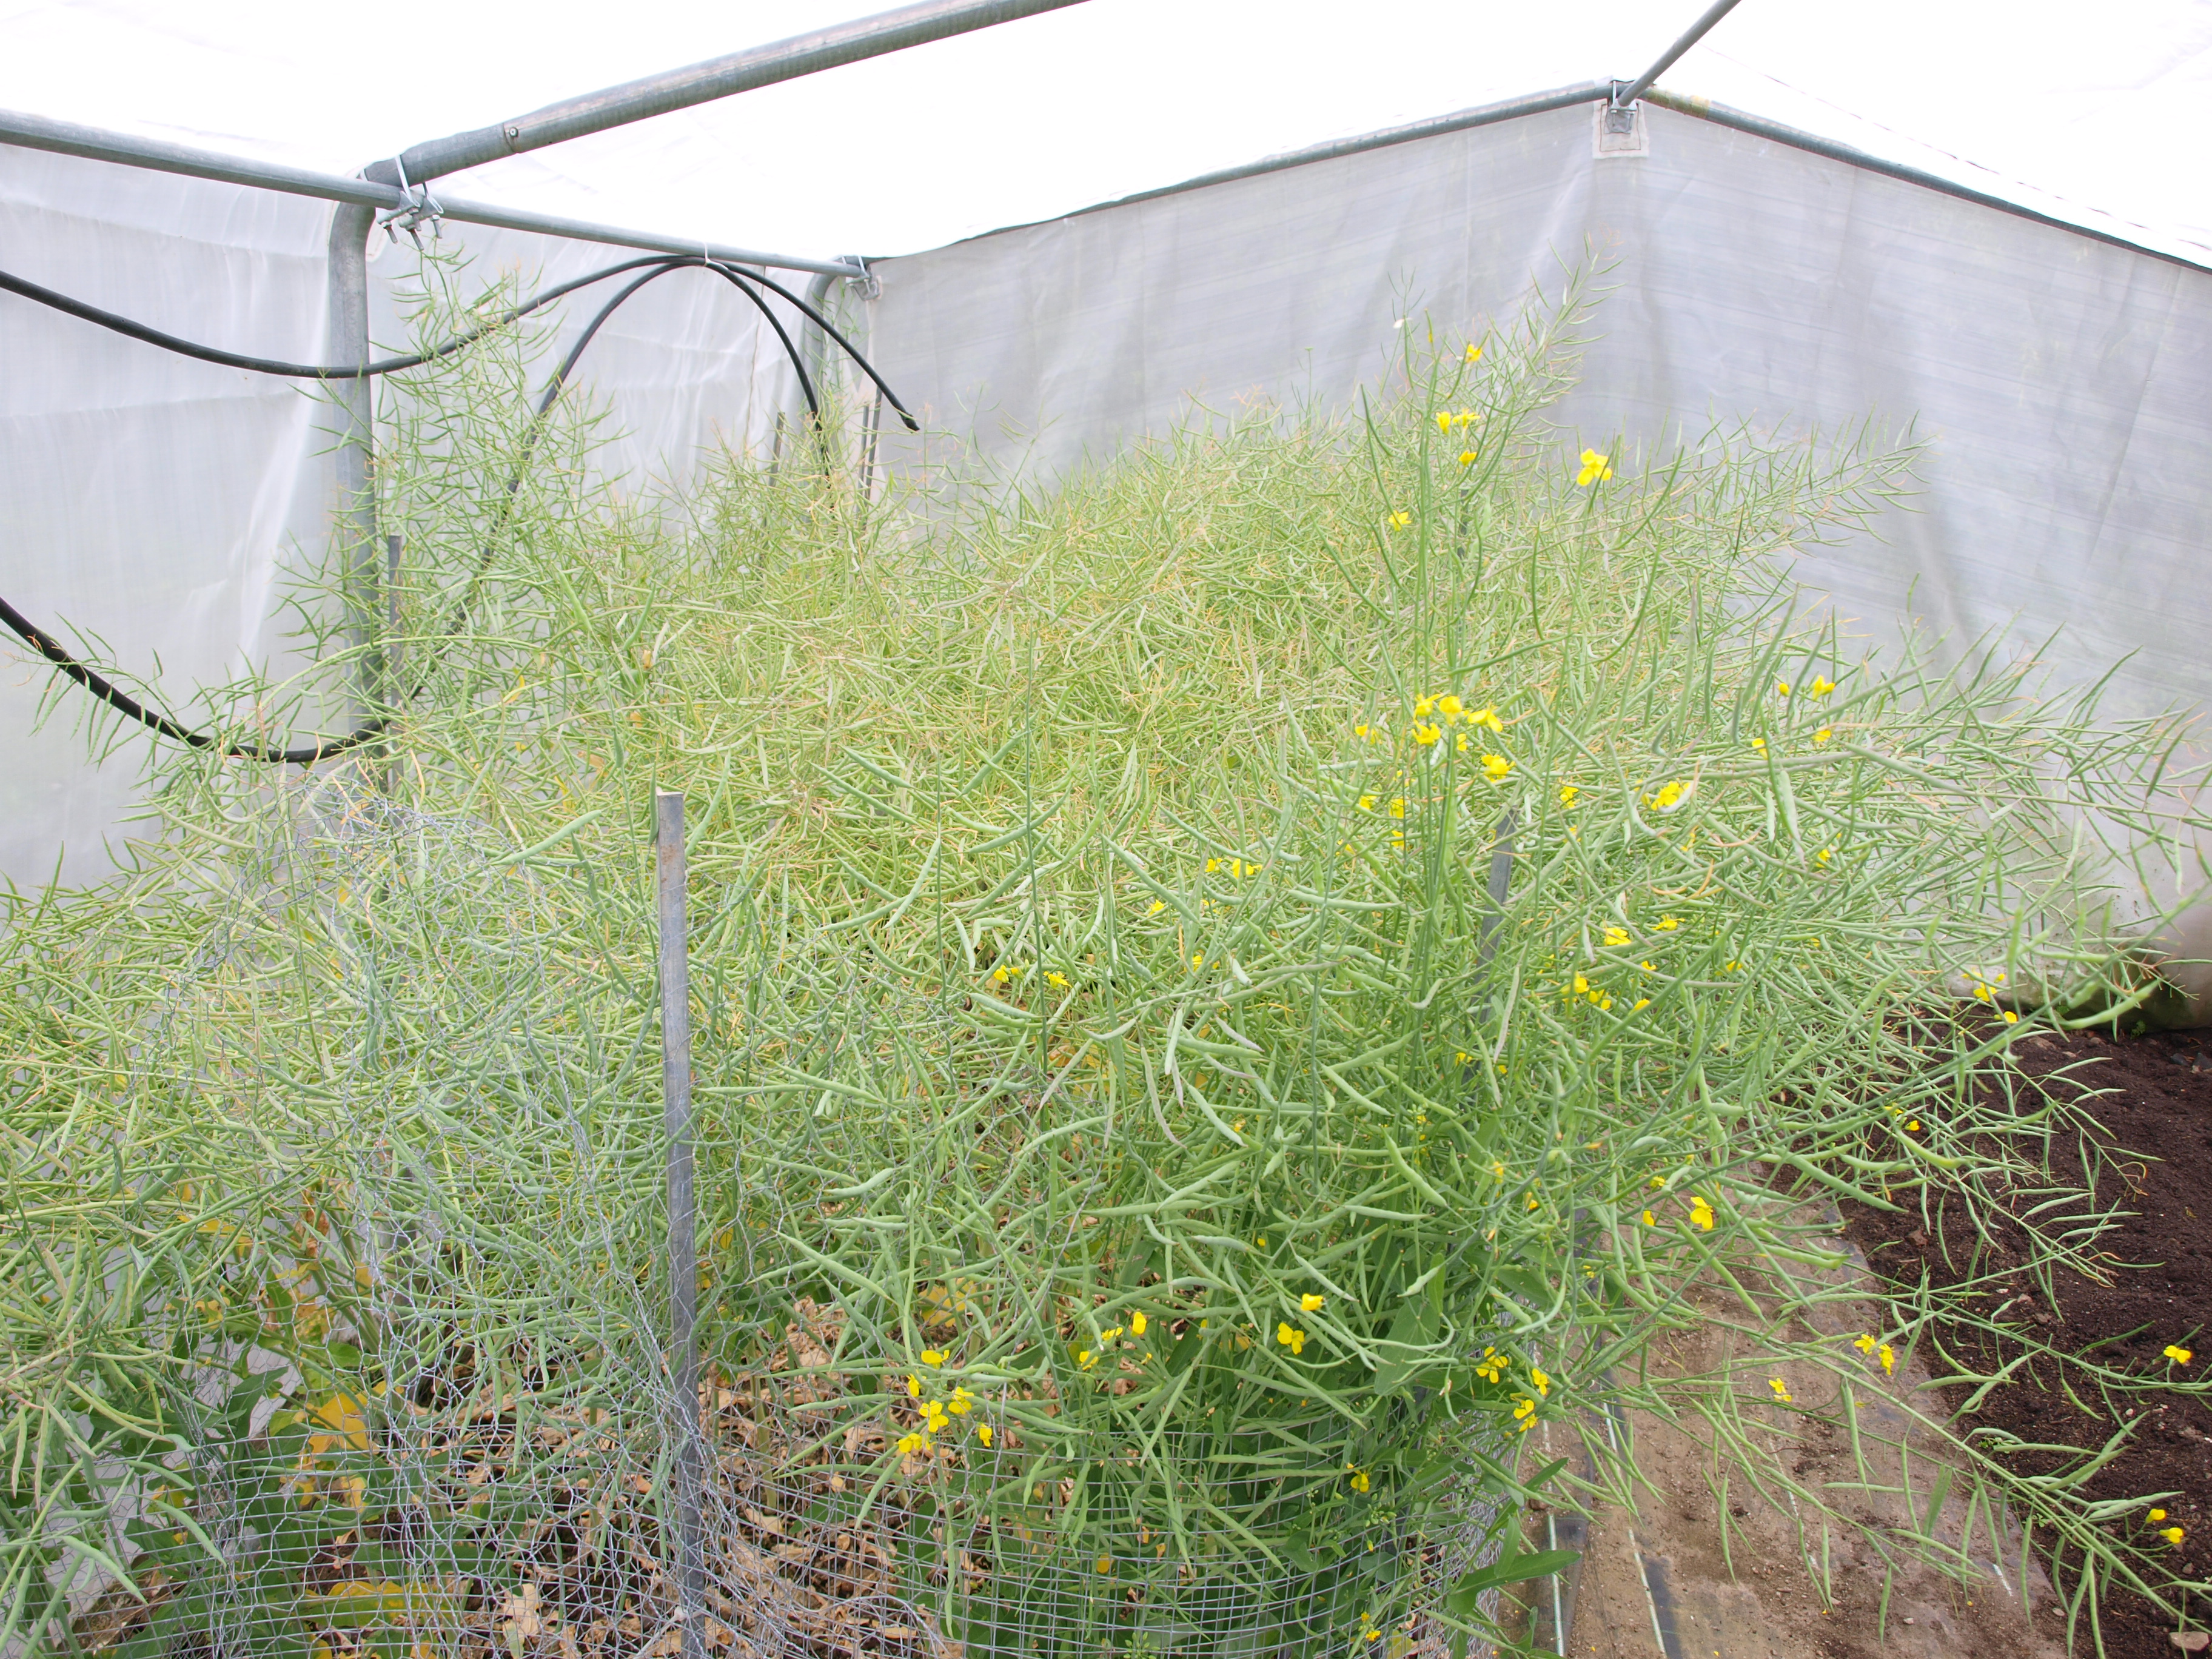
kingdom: Plantae
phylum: Tracheophyta
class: Magnoliopsida
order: Brassicales
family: Brassicaceae
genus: Brassica
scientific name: Brassica napus
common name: Rape
